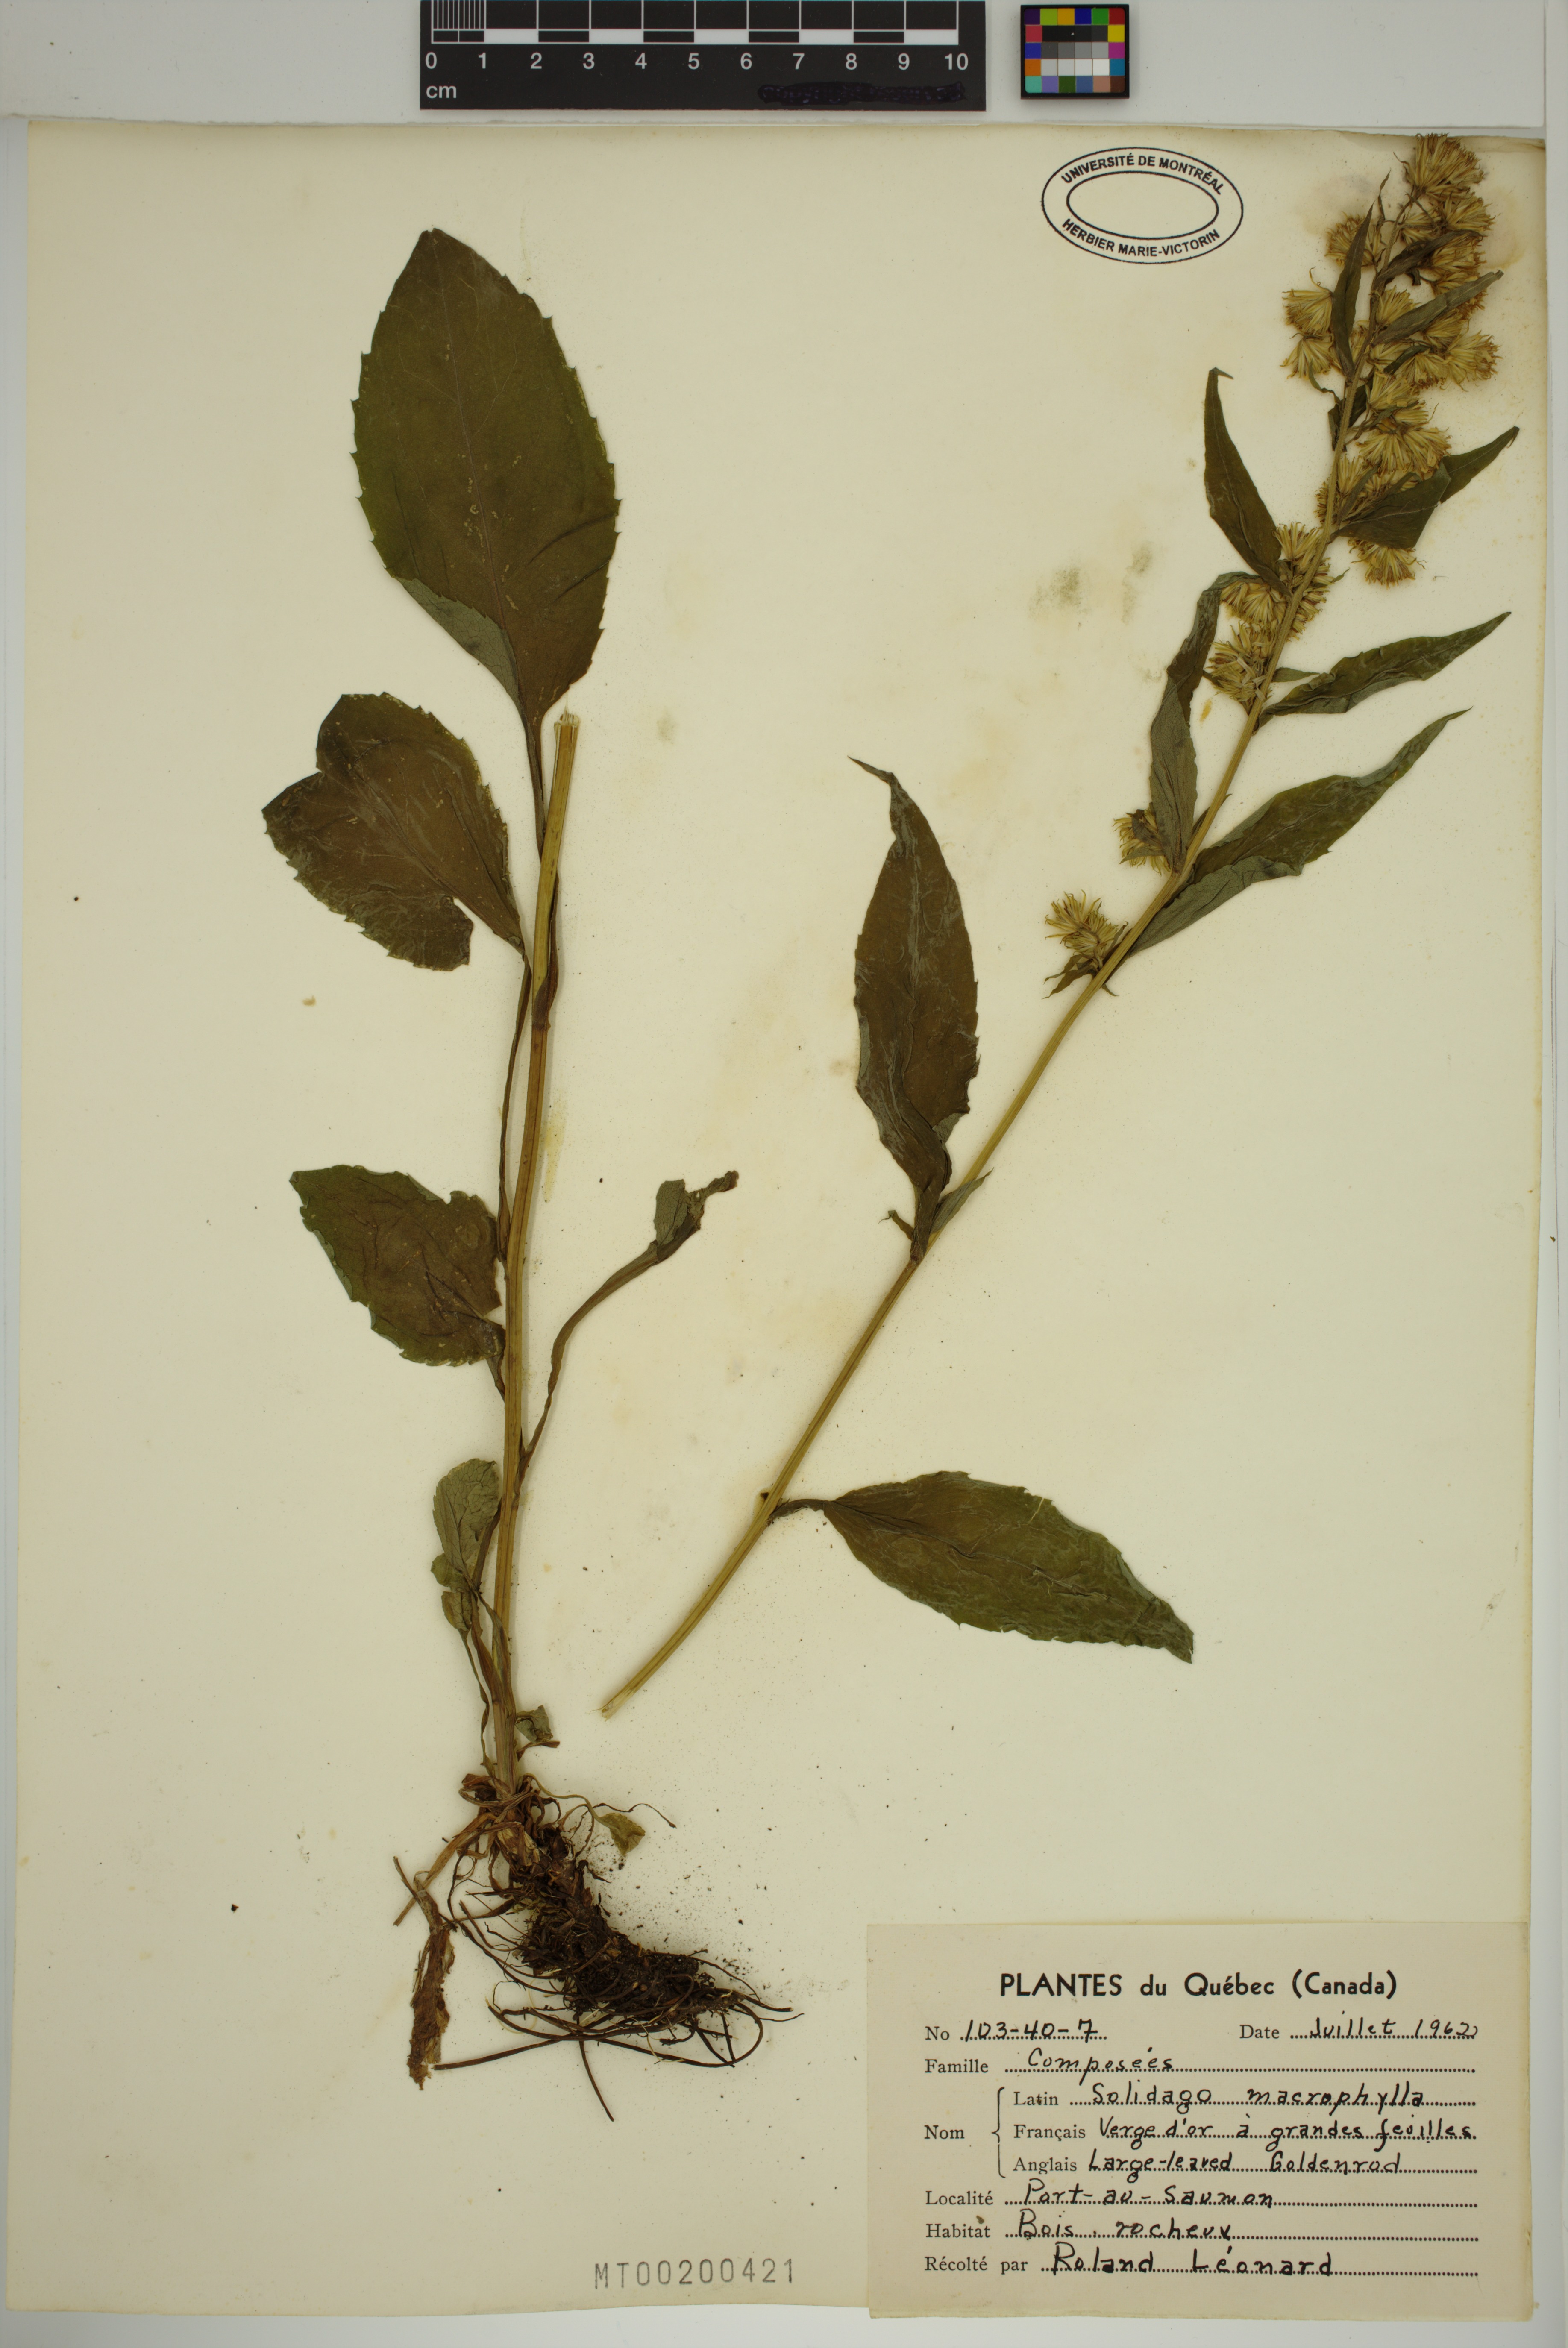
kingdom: Plantae
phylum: Tracheophyta
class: Magnoliopsida
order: Asterales
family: Asteraceae
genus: Solidago
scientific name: Solidago macrophylla
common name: Large-leaved goldenrod
